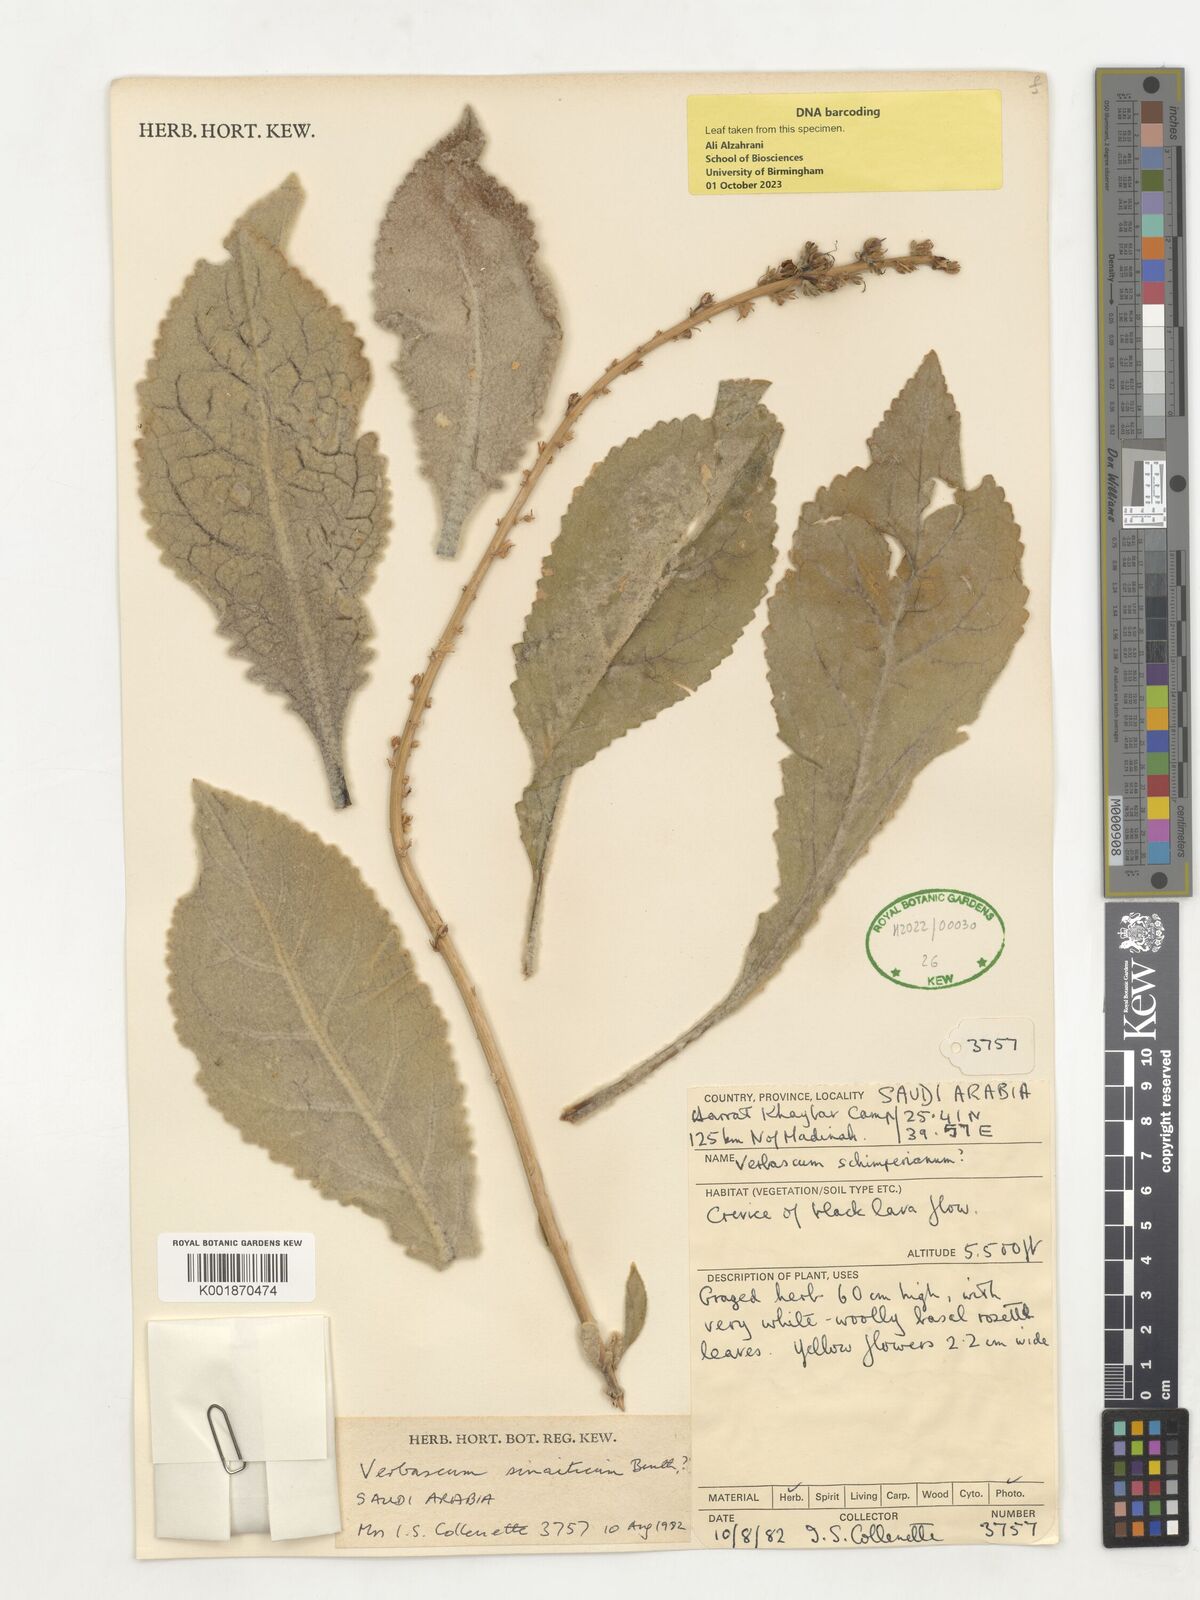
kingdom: Plantae
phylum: Tracheophyta
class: Magnoliopsida
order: Lamiales
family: Scrophulariaceae
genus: Verbascum
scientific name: Verbascum sinaiticum
